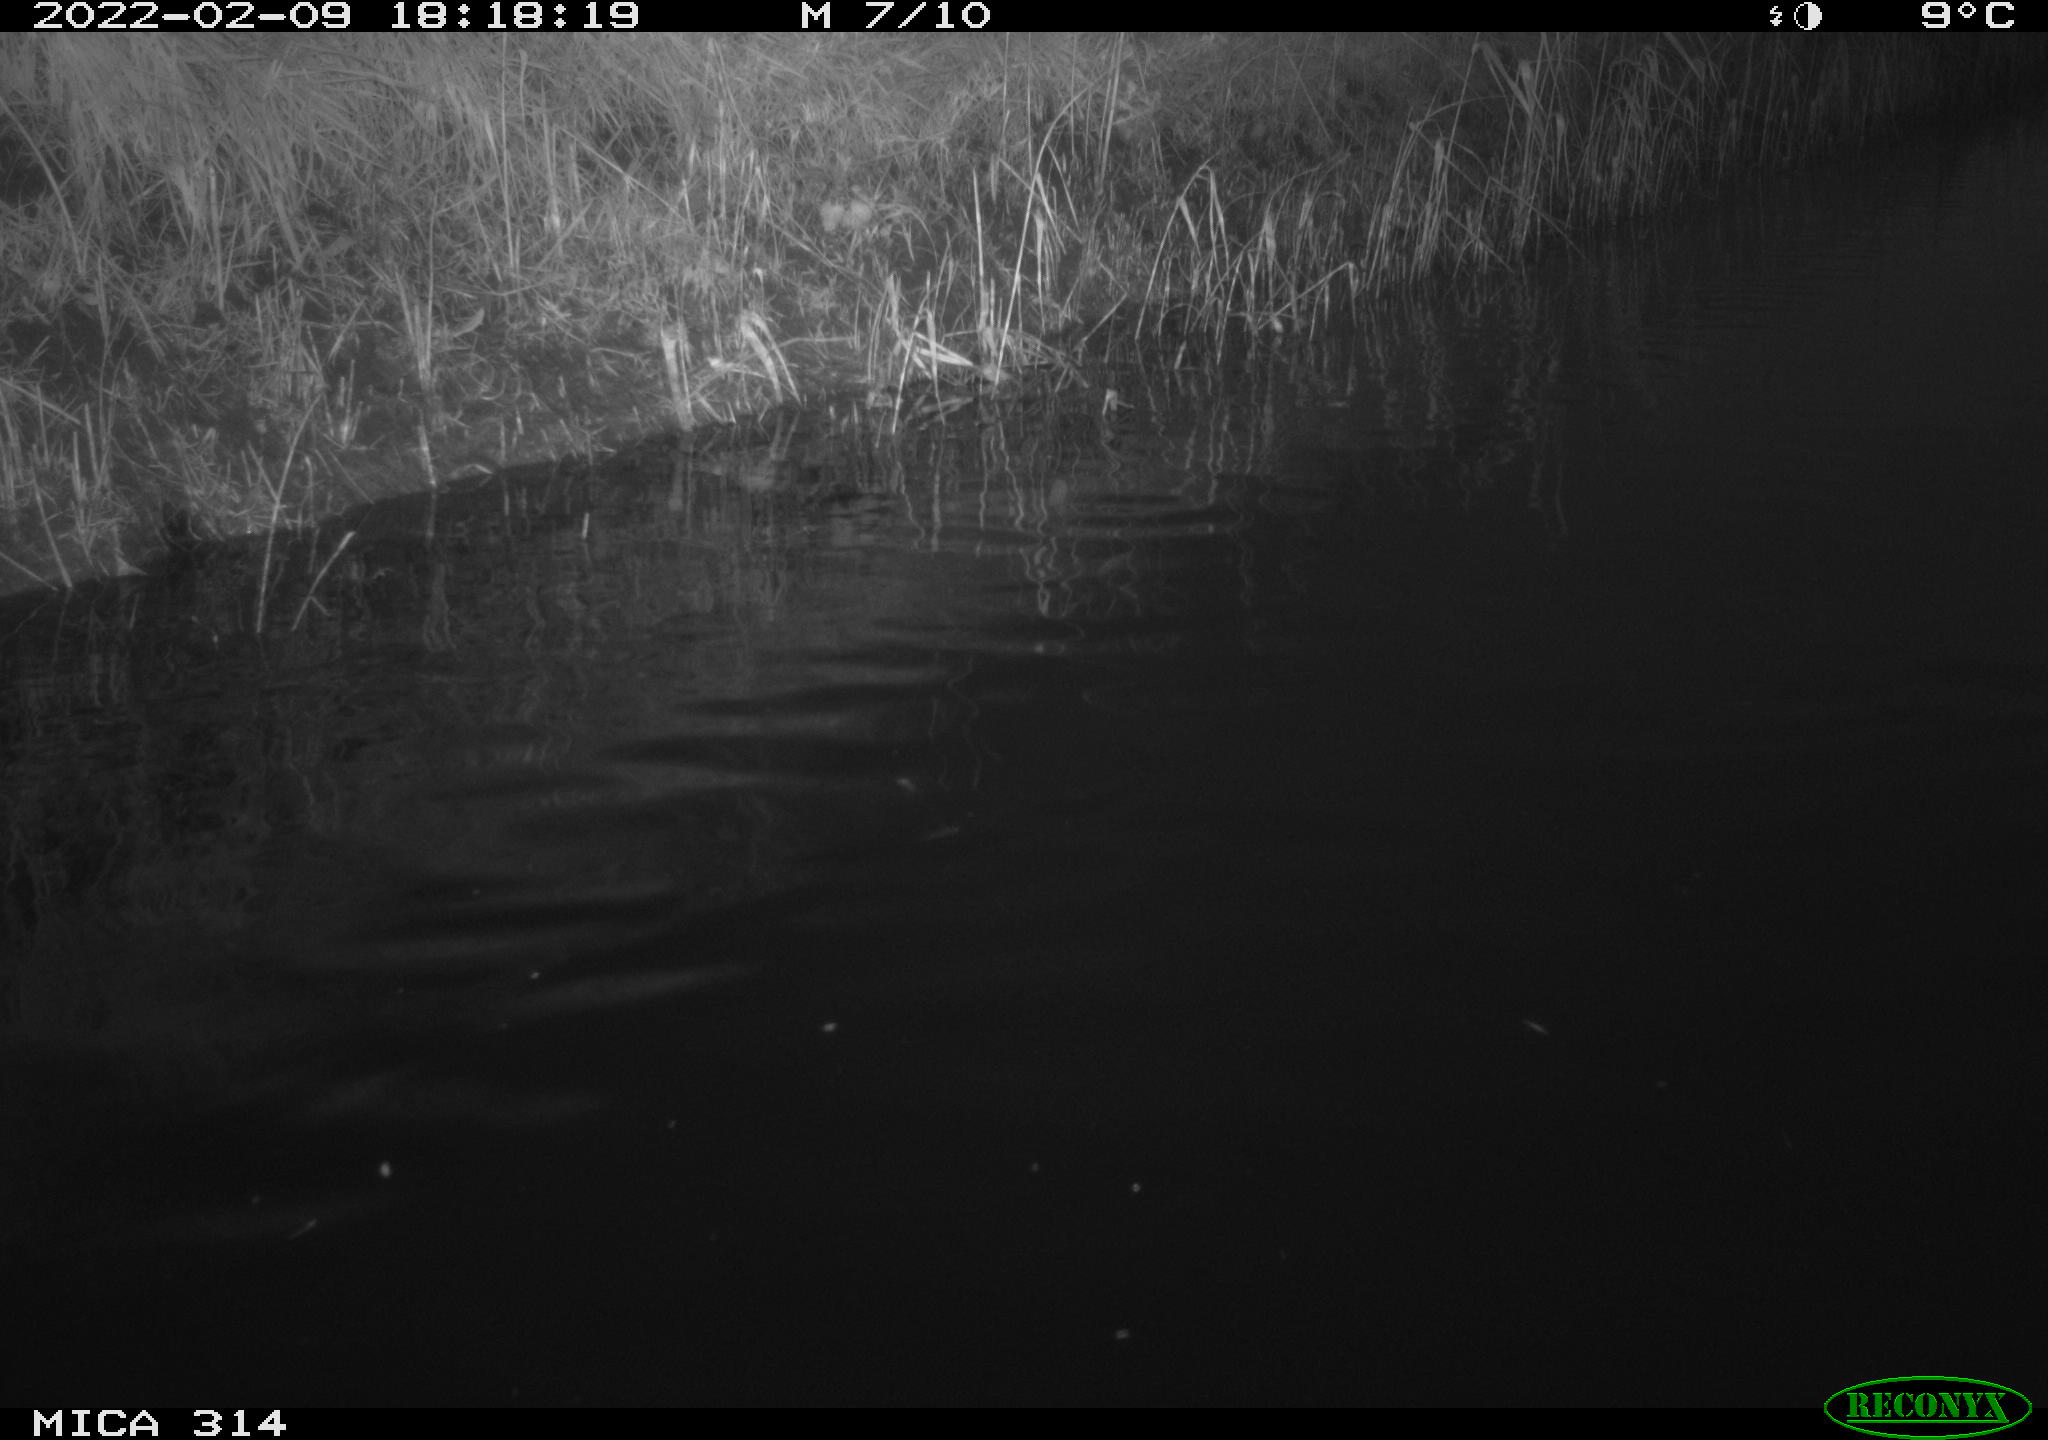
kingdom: Animalia
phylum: Chordata
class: Aves
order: Gruiformes
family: Rallidae
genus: Gallinula
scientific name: Gallinula chloropus
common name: Common moorhen
